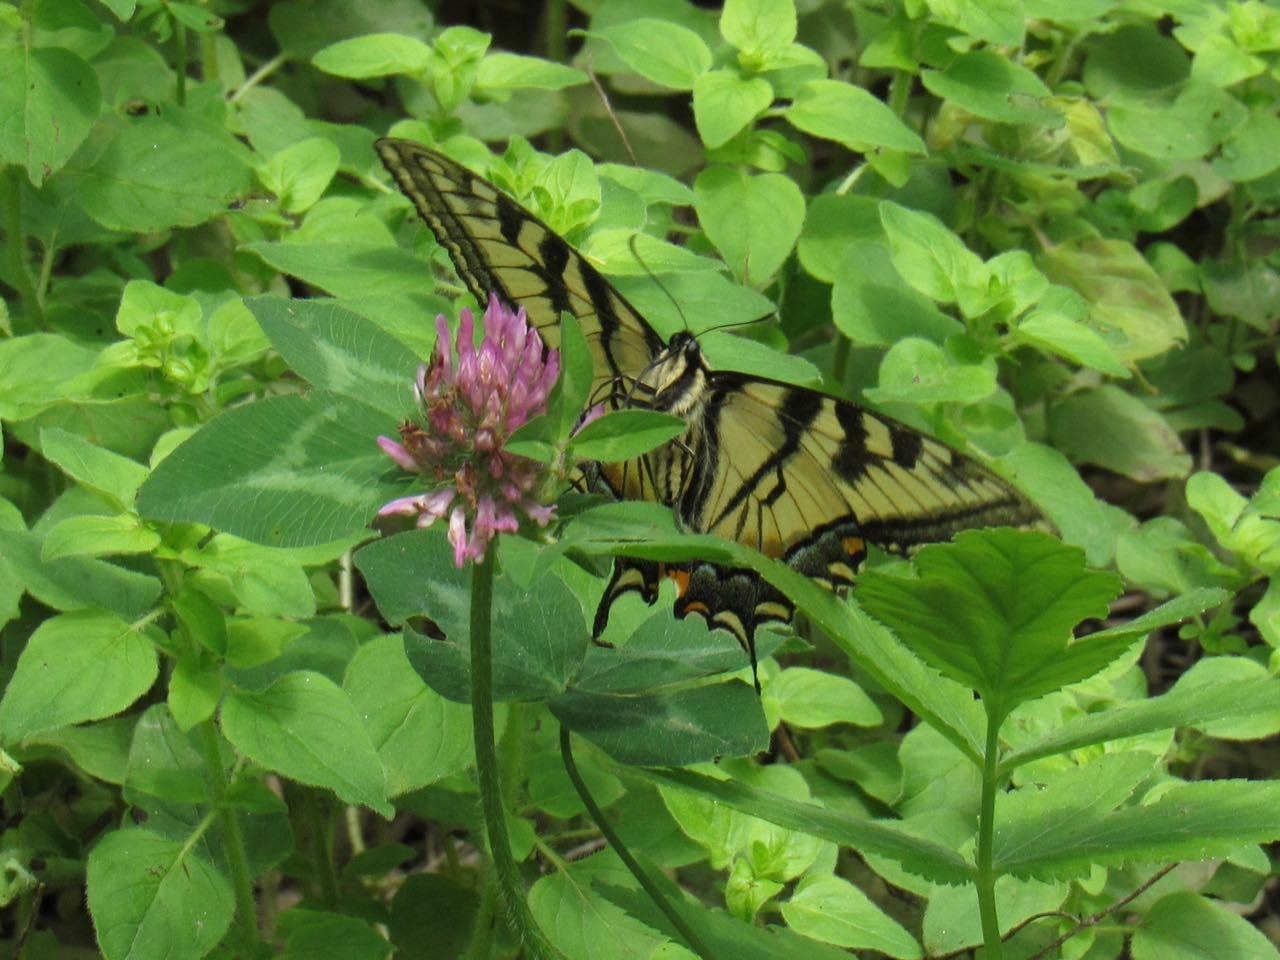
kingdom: Animalia
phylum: Arthropoda
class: Insecta
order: Lepidoptera
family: Papilionidae
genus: Pterourus
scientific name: Pterourus canadensis
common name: Canadian Tiger Swallowtail
